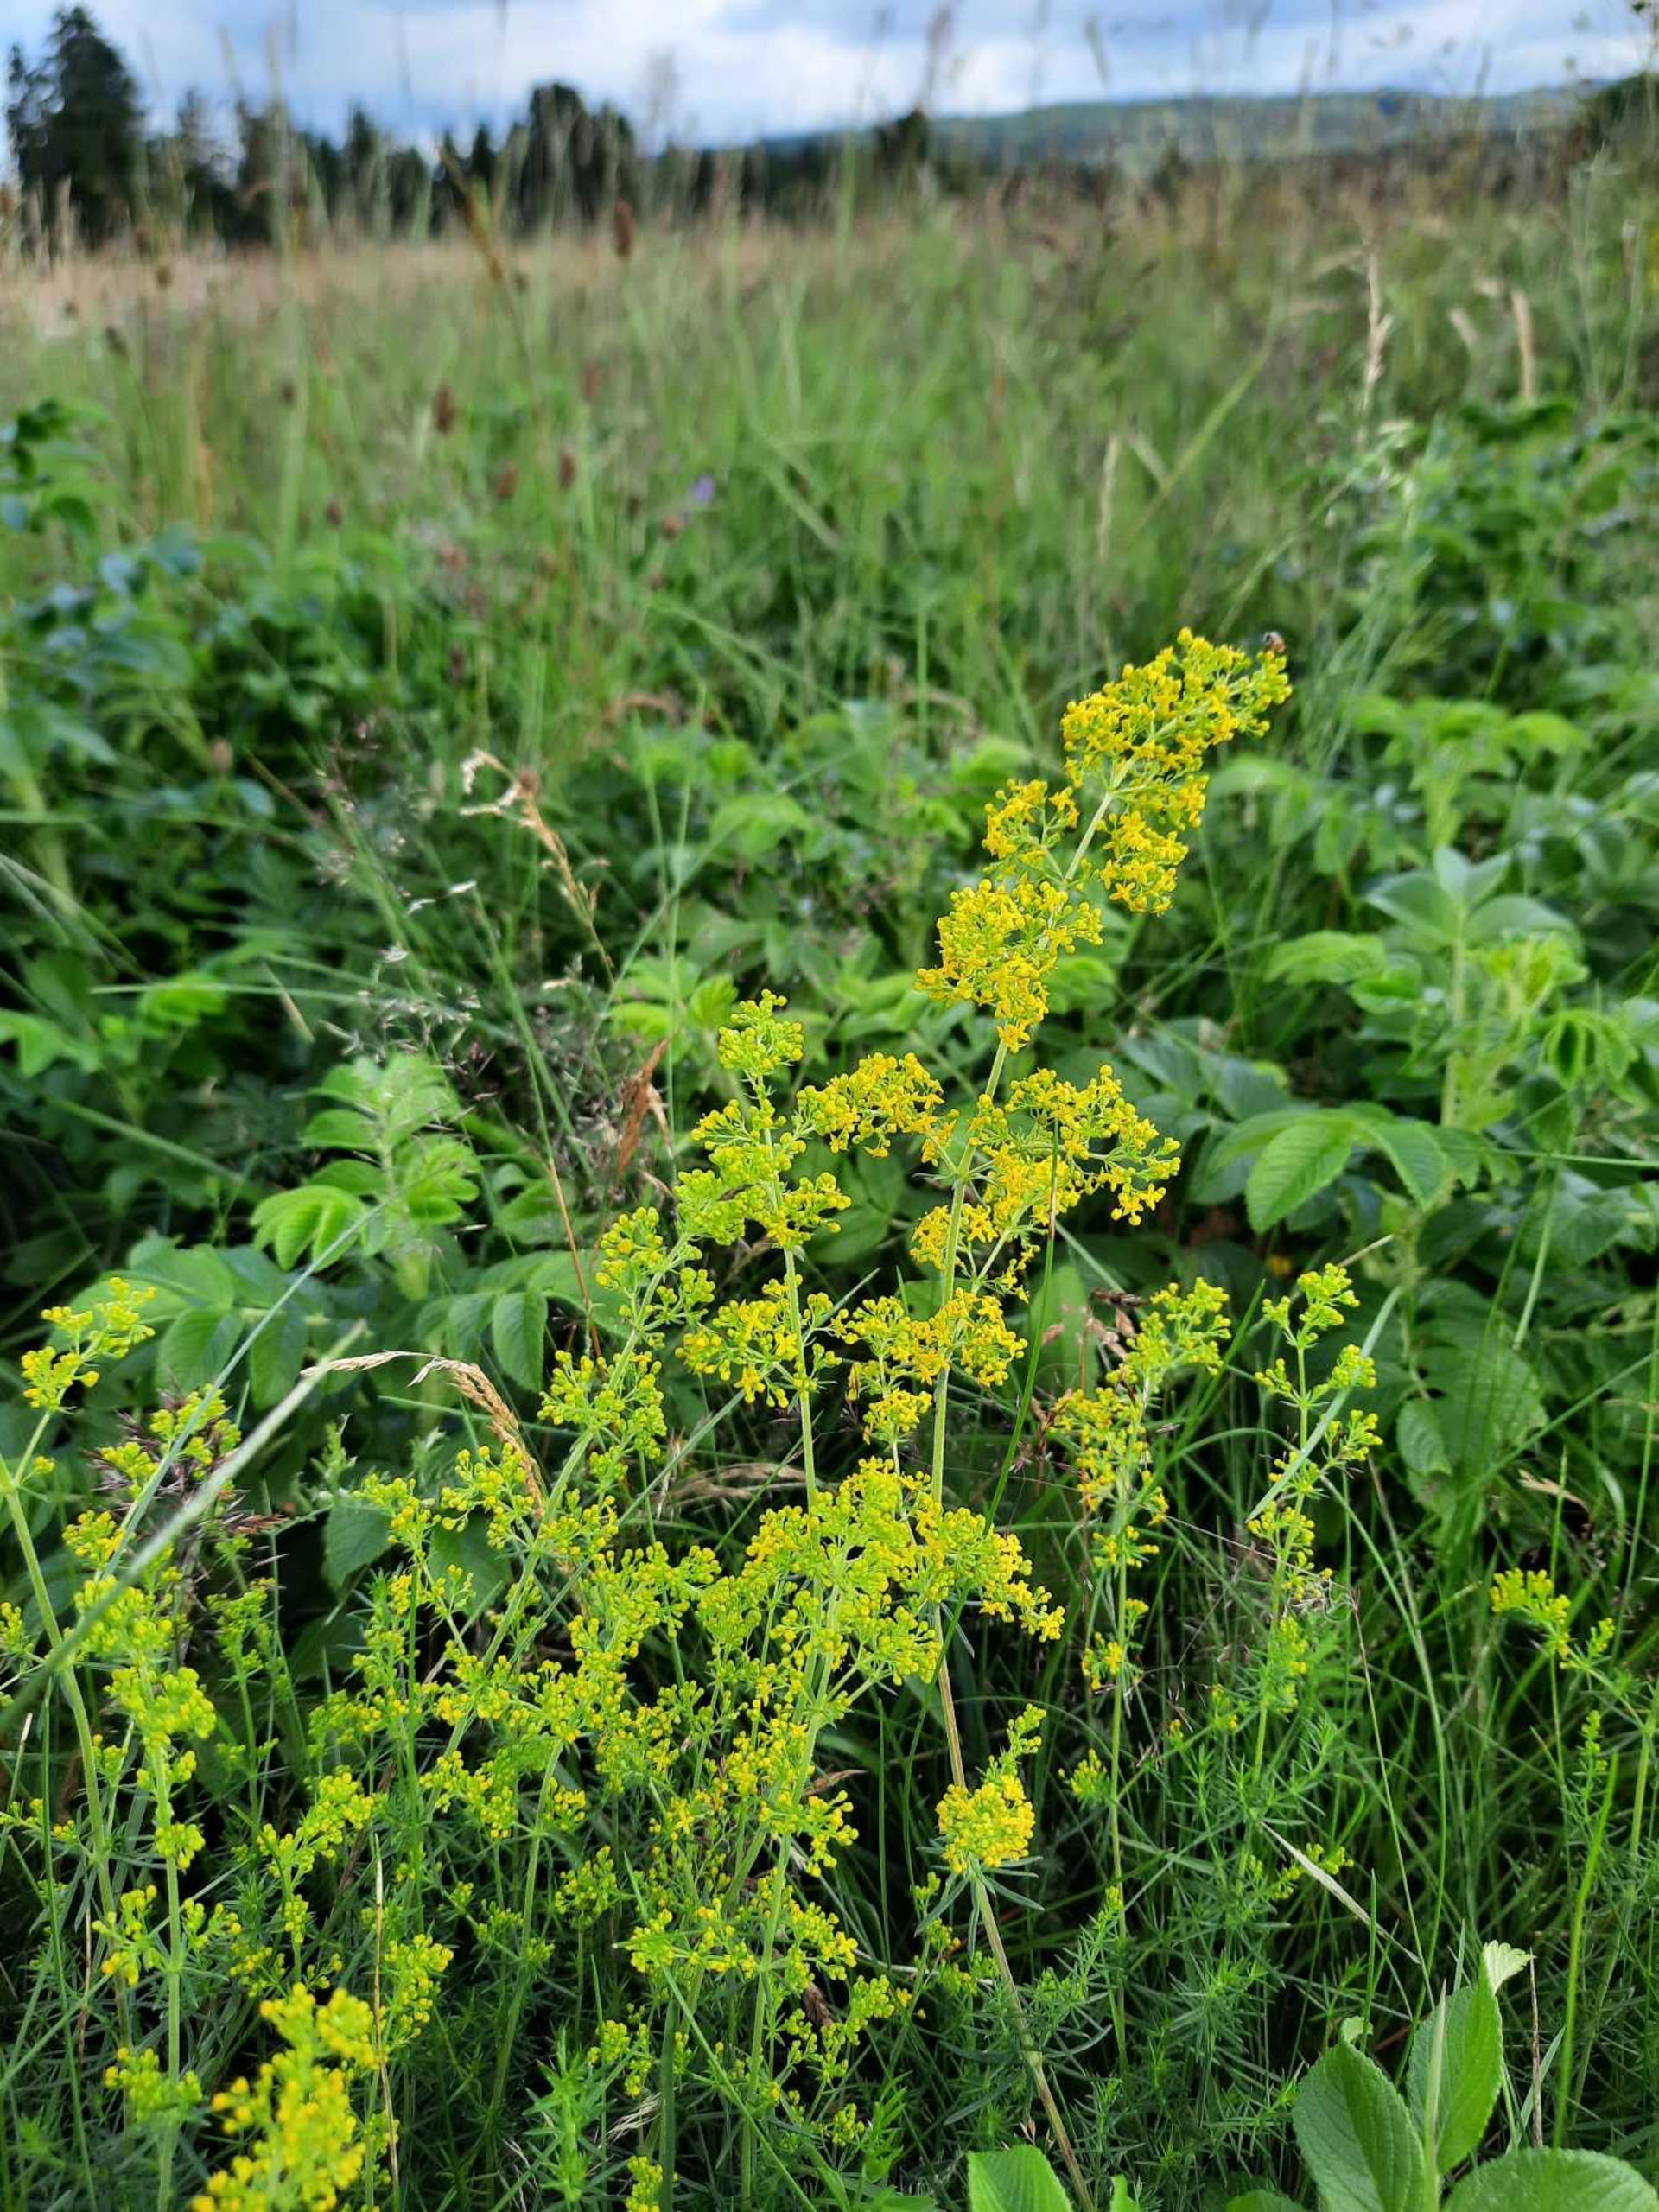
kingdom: Plantae
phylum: Tracheophyta
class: Magnoliopsida
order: Gentianales
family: Rubiaceae
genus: Galium
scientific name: Galium verum
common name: Gul snerre
